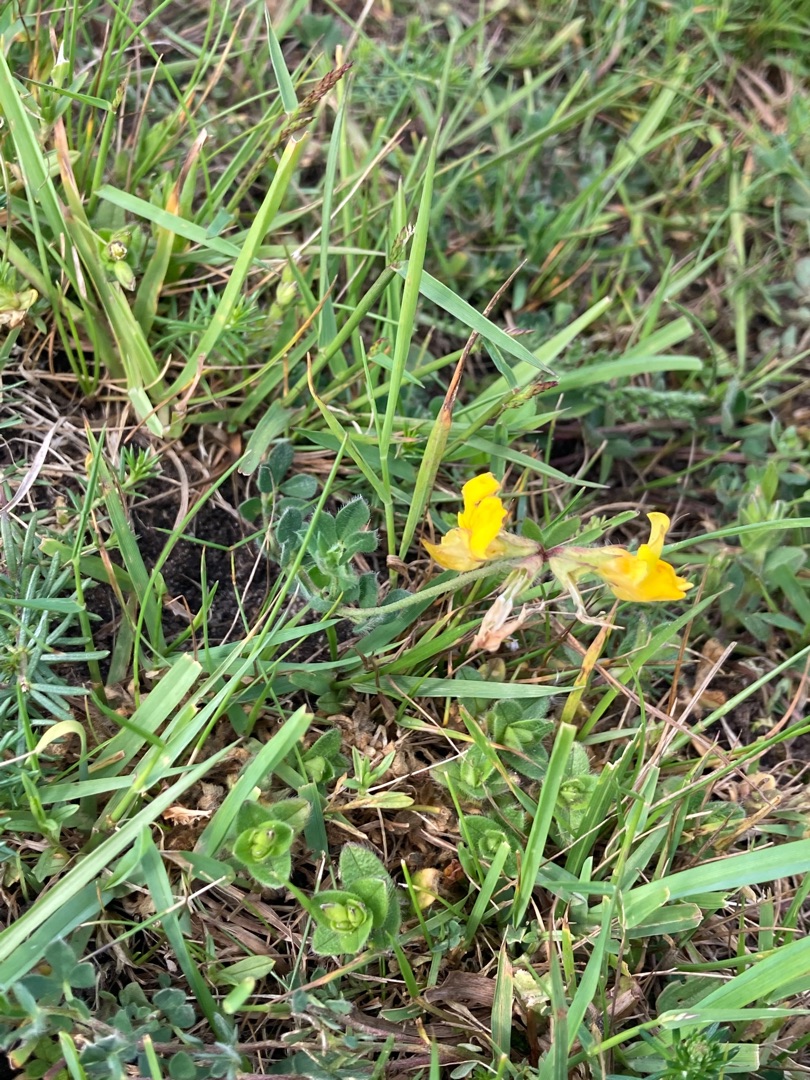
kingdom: Plantae
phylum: Tracheophyta
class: Magnoliopsida
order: Fabales
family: Fabaceae
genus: Lotus
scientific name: Lotus corniculatus
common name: Almindelig kællingetand
